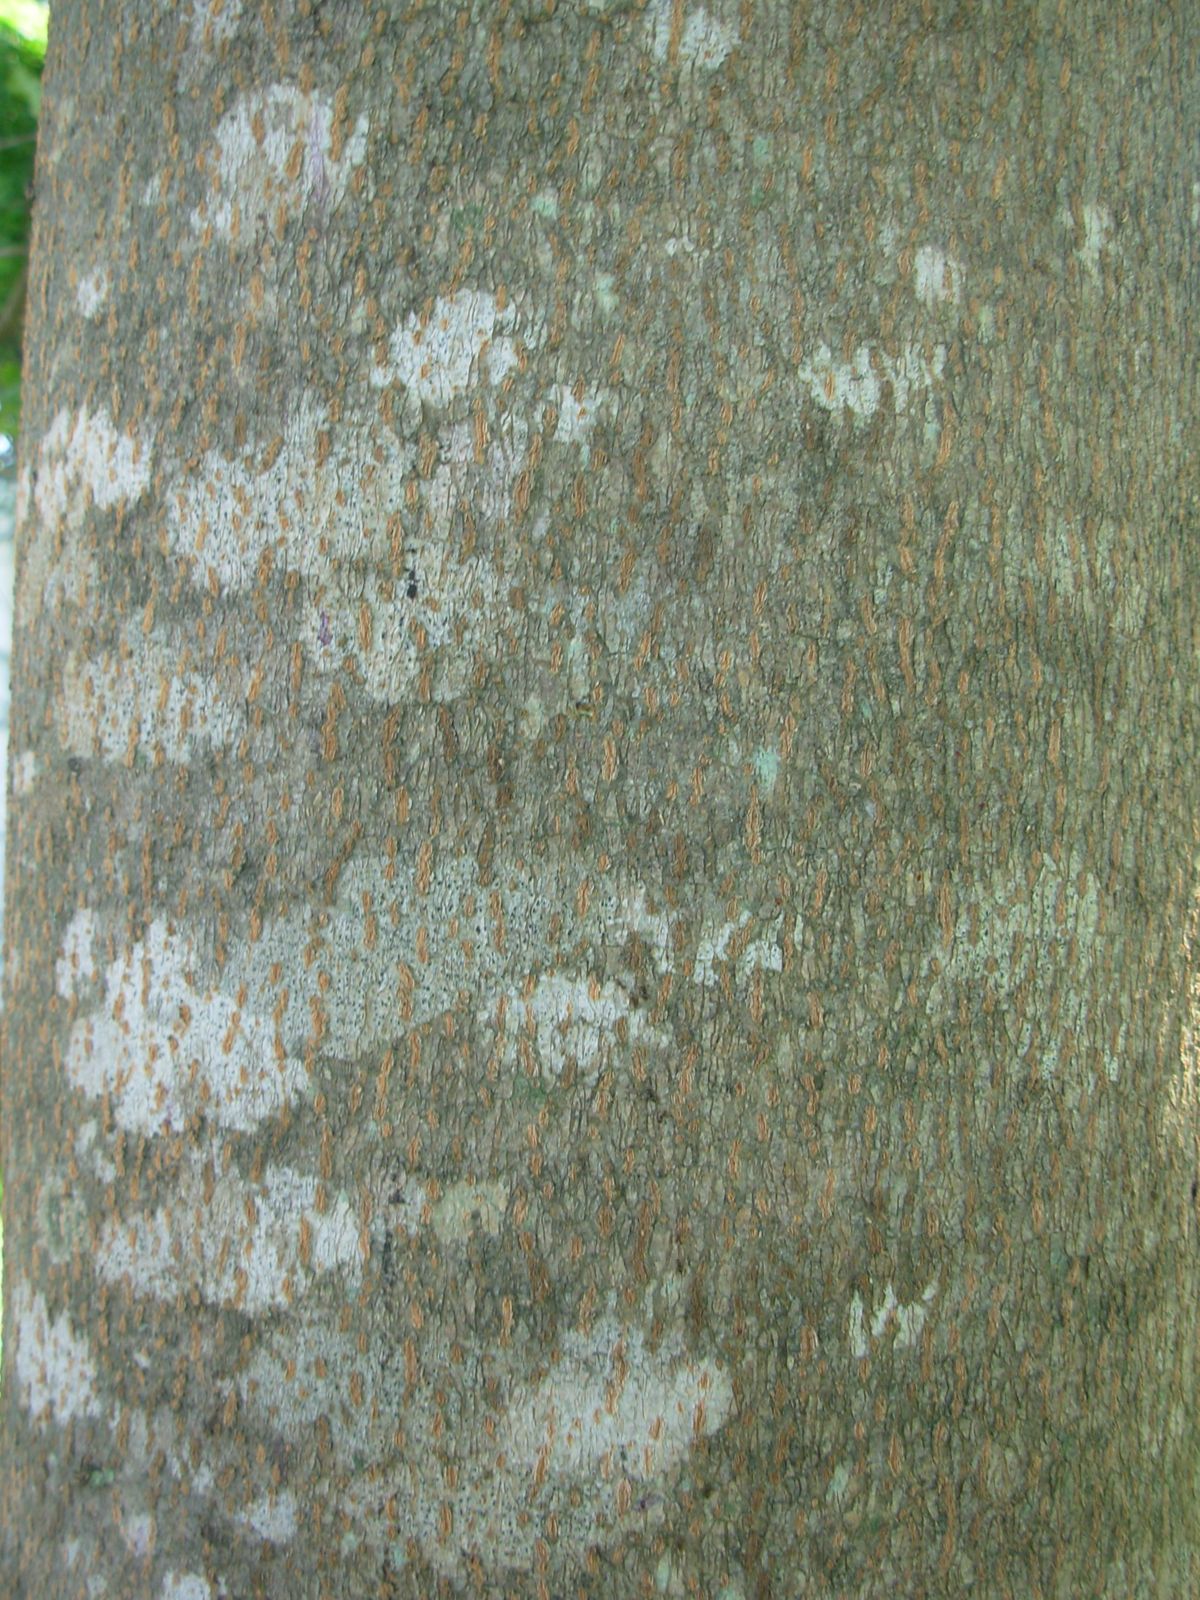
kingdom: Plantae
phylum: Tracheophyta
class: Magnoliopsida
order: Myrtales
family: Combretaceae
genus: Terminalia
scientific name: Terminalia buceras
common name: Black-olive
